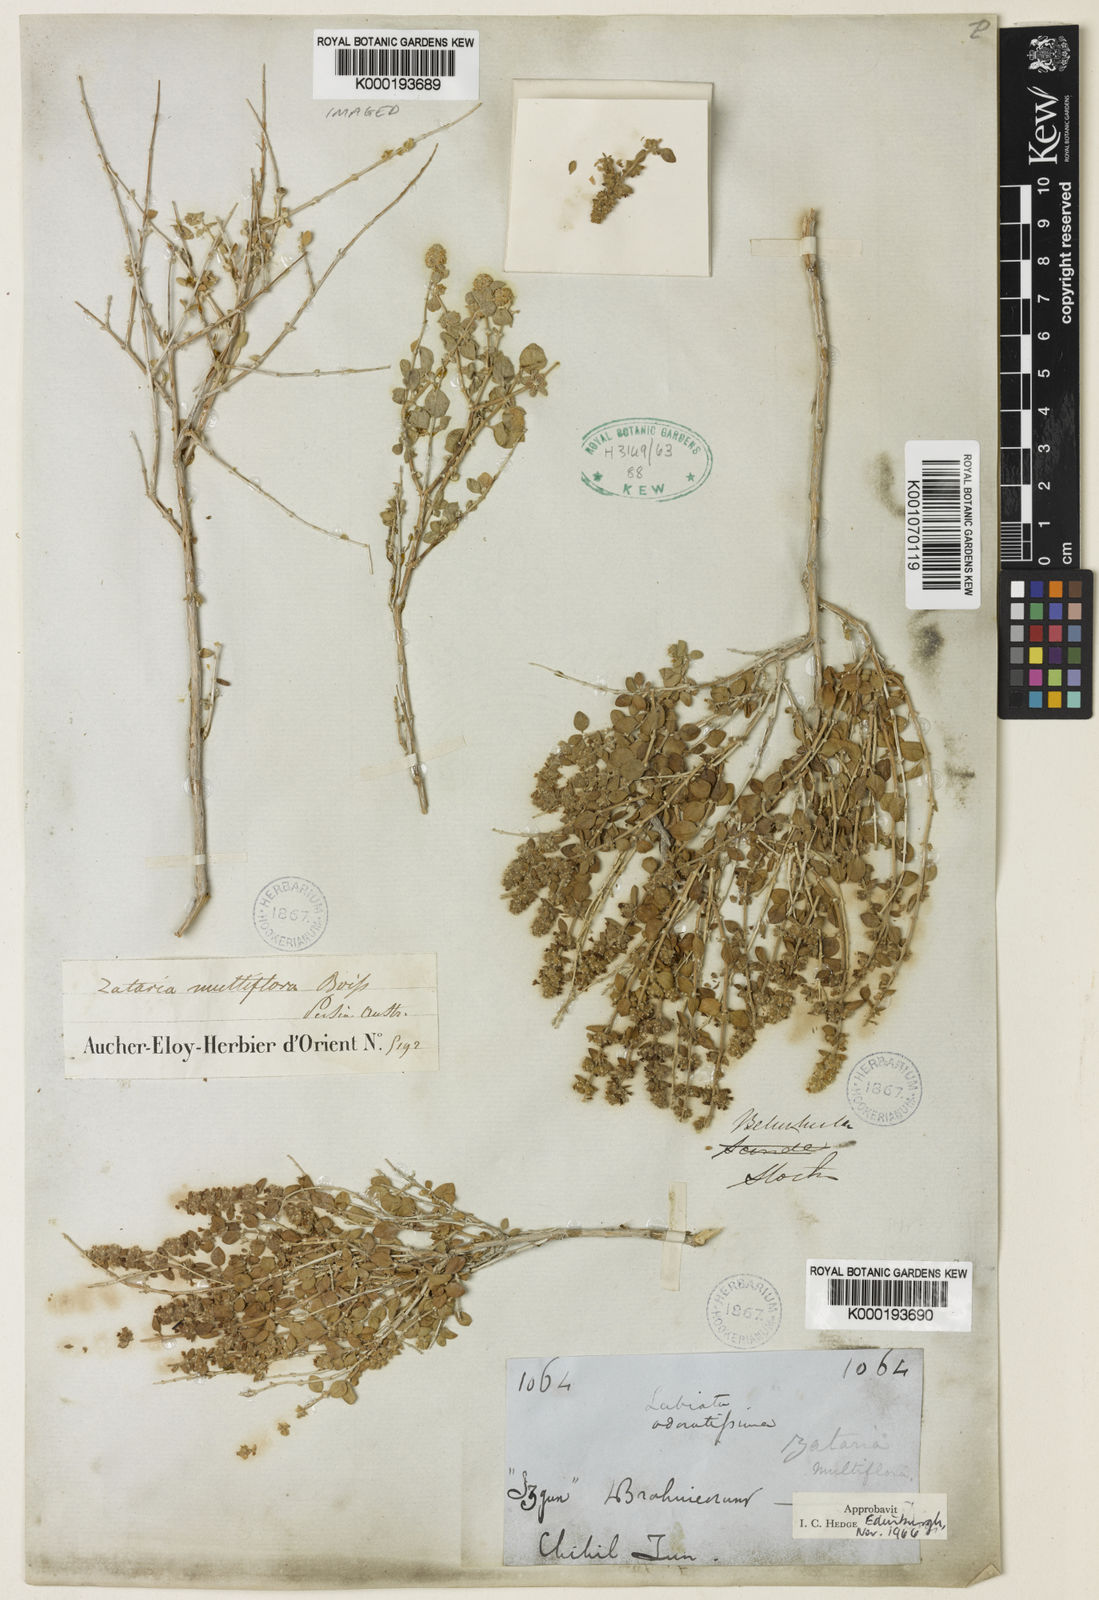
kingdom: Plantae
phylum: Tracheophyta
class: Magnoliopsida
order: Lamiales
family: Lamiaceae
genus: Zataria
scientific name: Zataria multiflora
